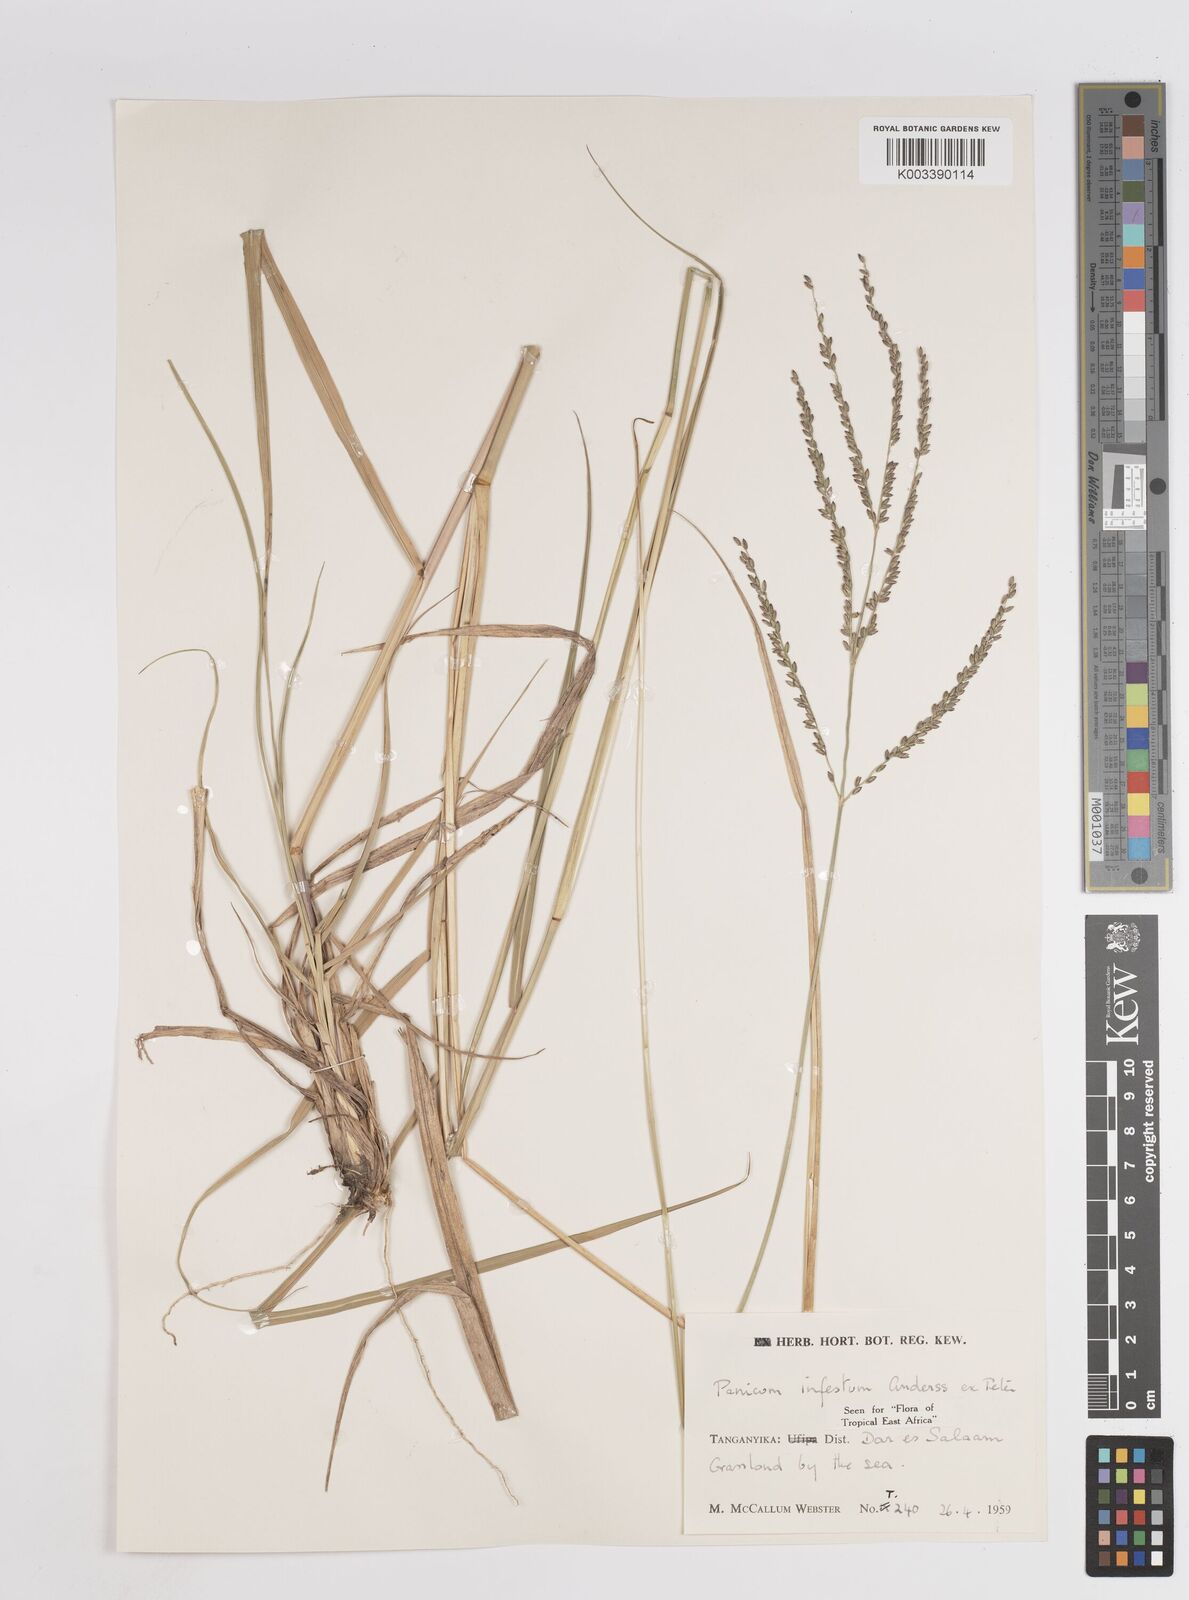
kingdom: Plantae
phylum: Tracheophyta
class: Liliopsida
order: Poales
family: Poaceae
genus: Megathyrsus
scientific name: Megathyrsus infestus
